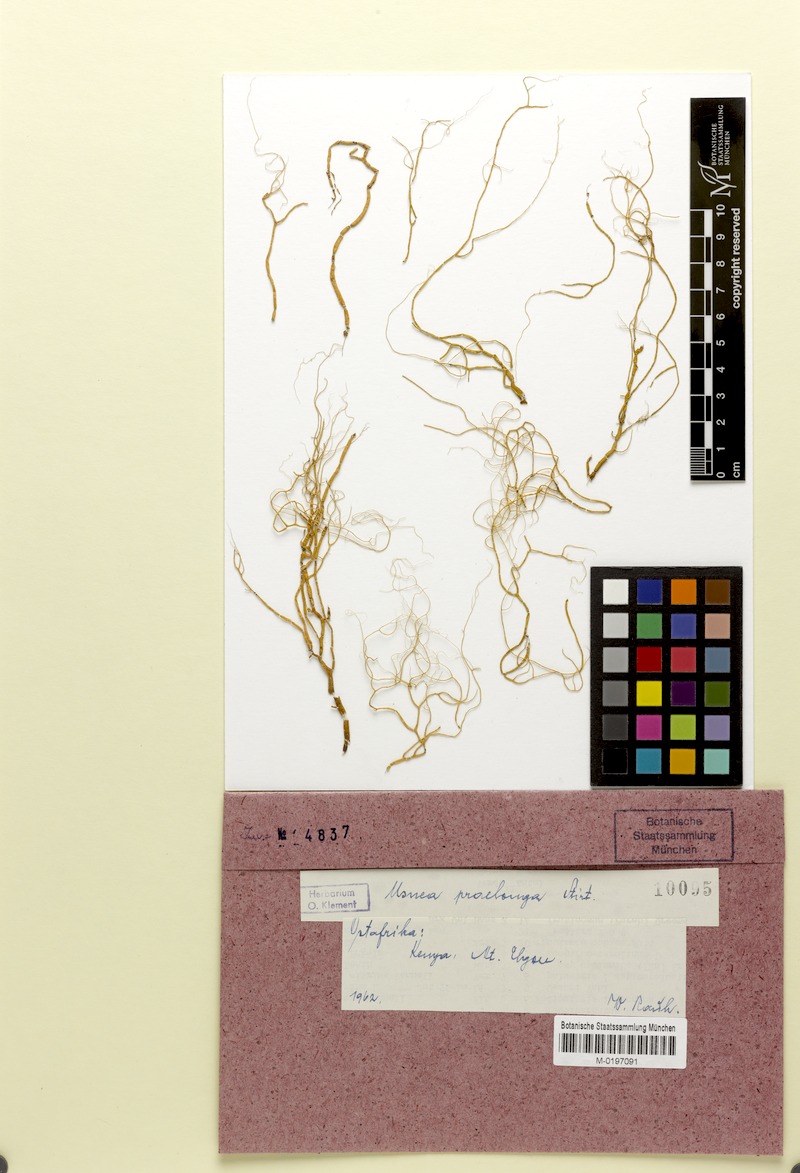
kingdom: Fungi
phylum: Ascomycota
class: Lecanoromycetes
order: Lecanorales
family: Parmeliaceae
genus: Usnea
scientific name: Usnea
